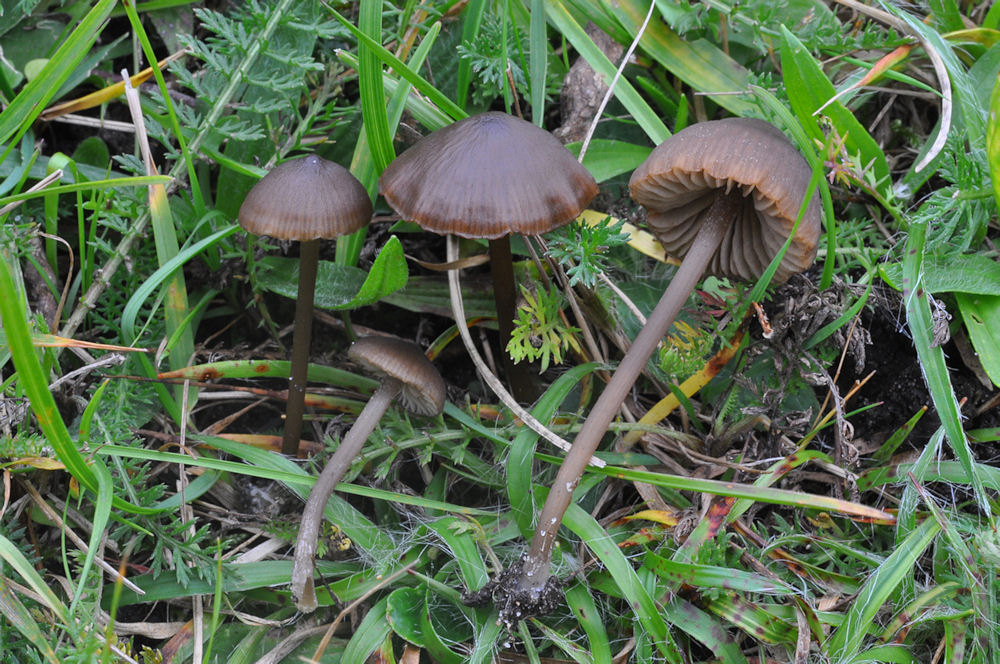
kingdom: Fungi
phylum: Basidiomycota
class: Agaricomycetes
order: Agaricales
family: Entolomataceae
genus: Entoloma
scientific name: Entoloma infula
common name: hvidbladet rødblad
